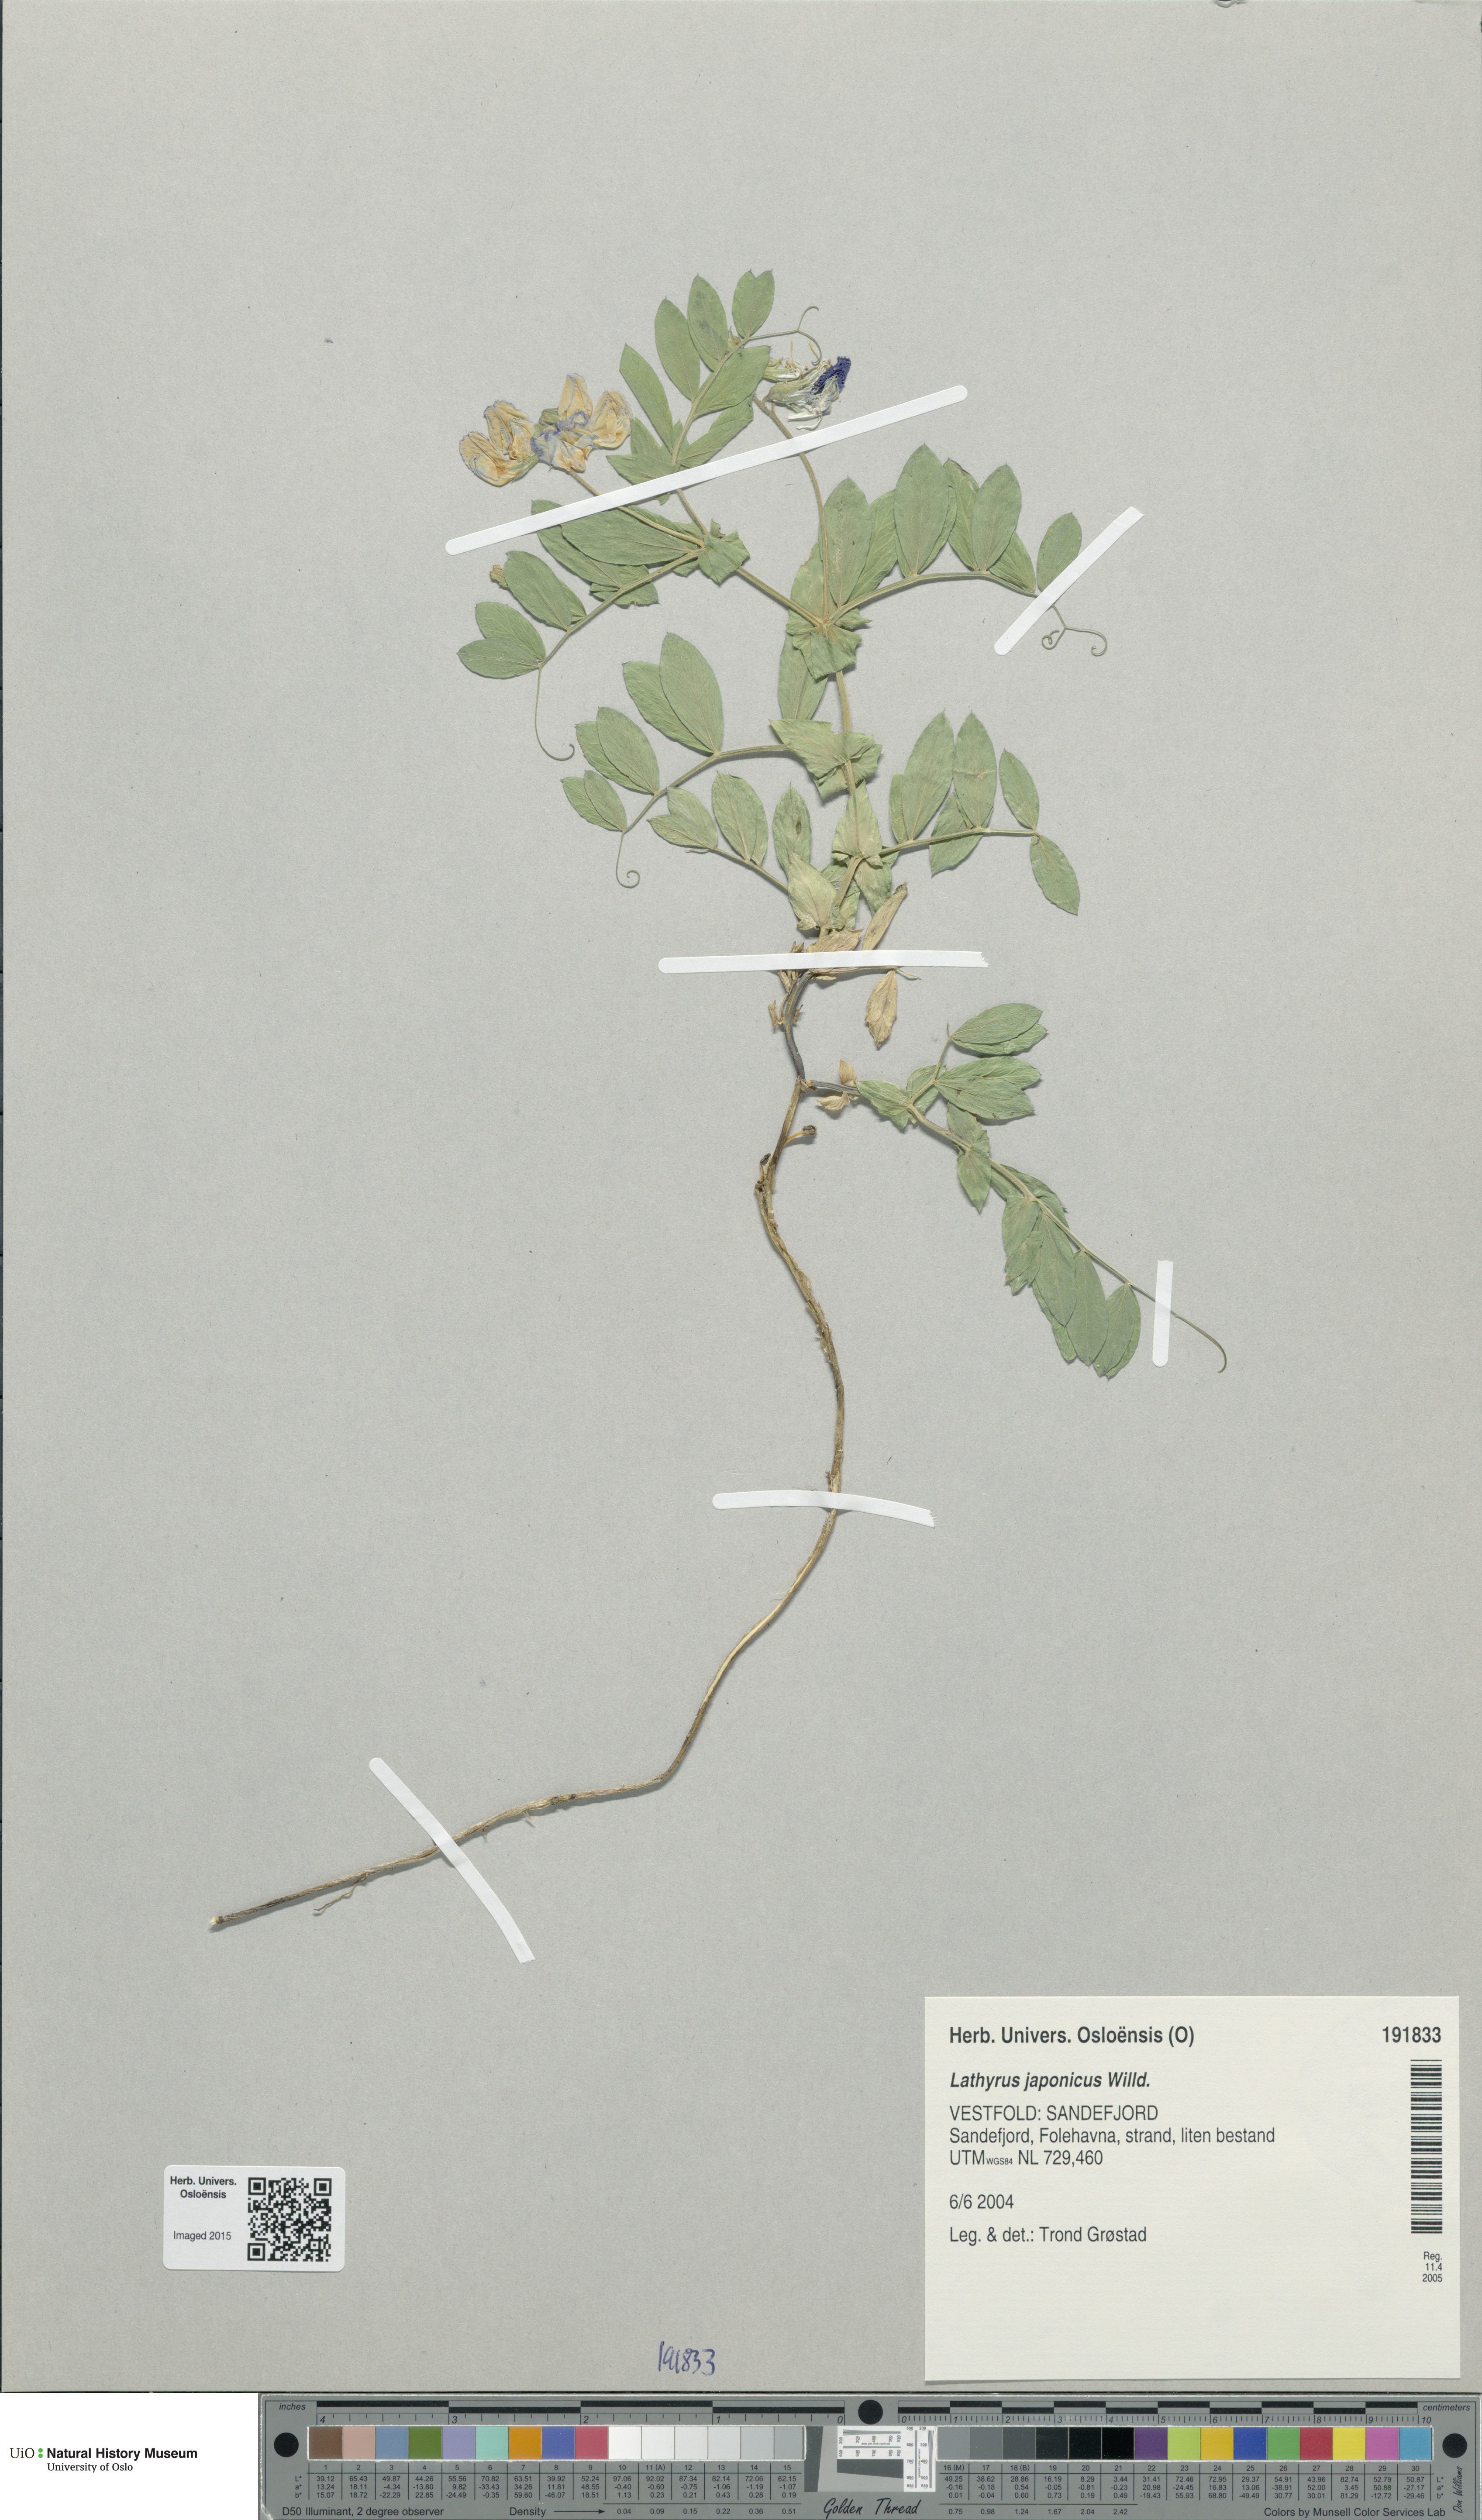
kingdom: Plantae
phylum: Tracheophyta
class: Magnoliopsida
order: Fabales
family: Fabaceae
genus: Lathyrus
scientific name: Lathyrus japonicus
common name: Sea pea
